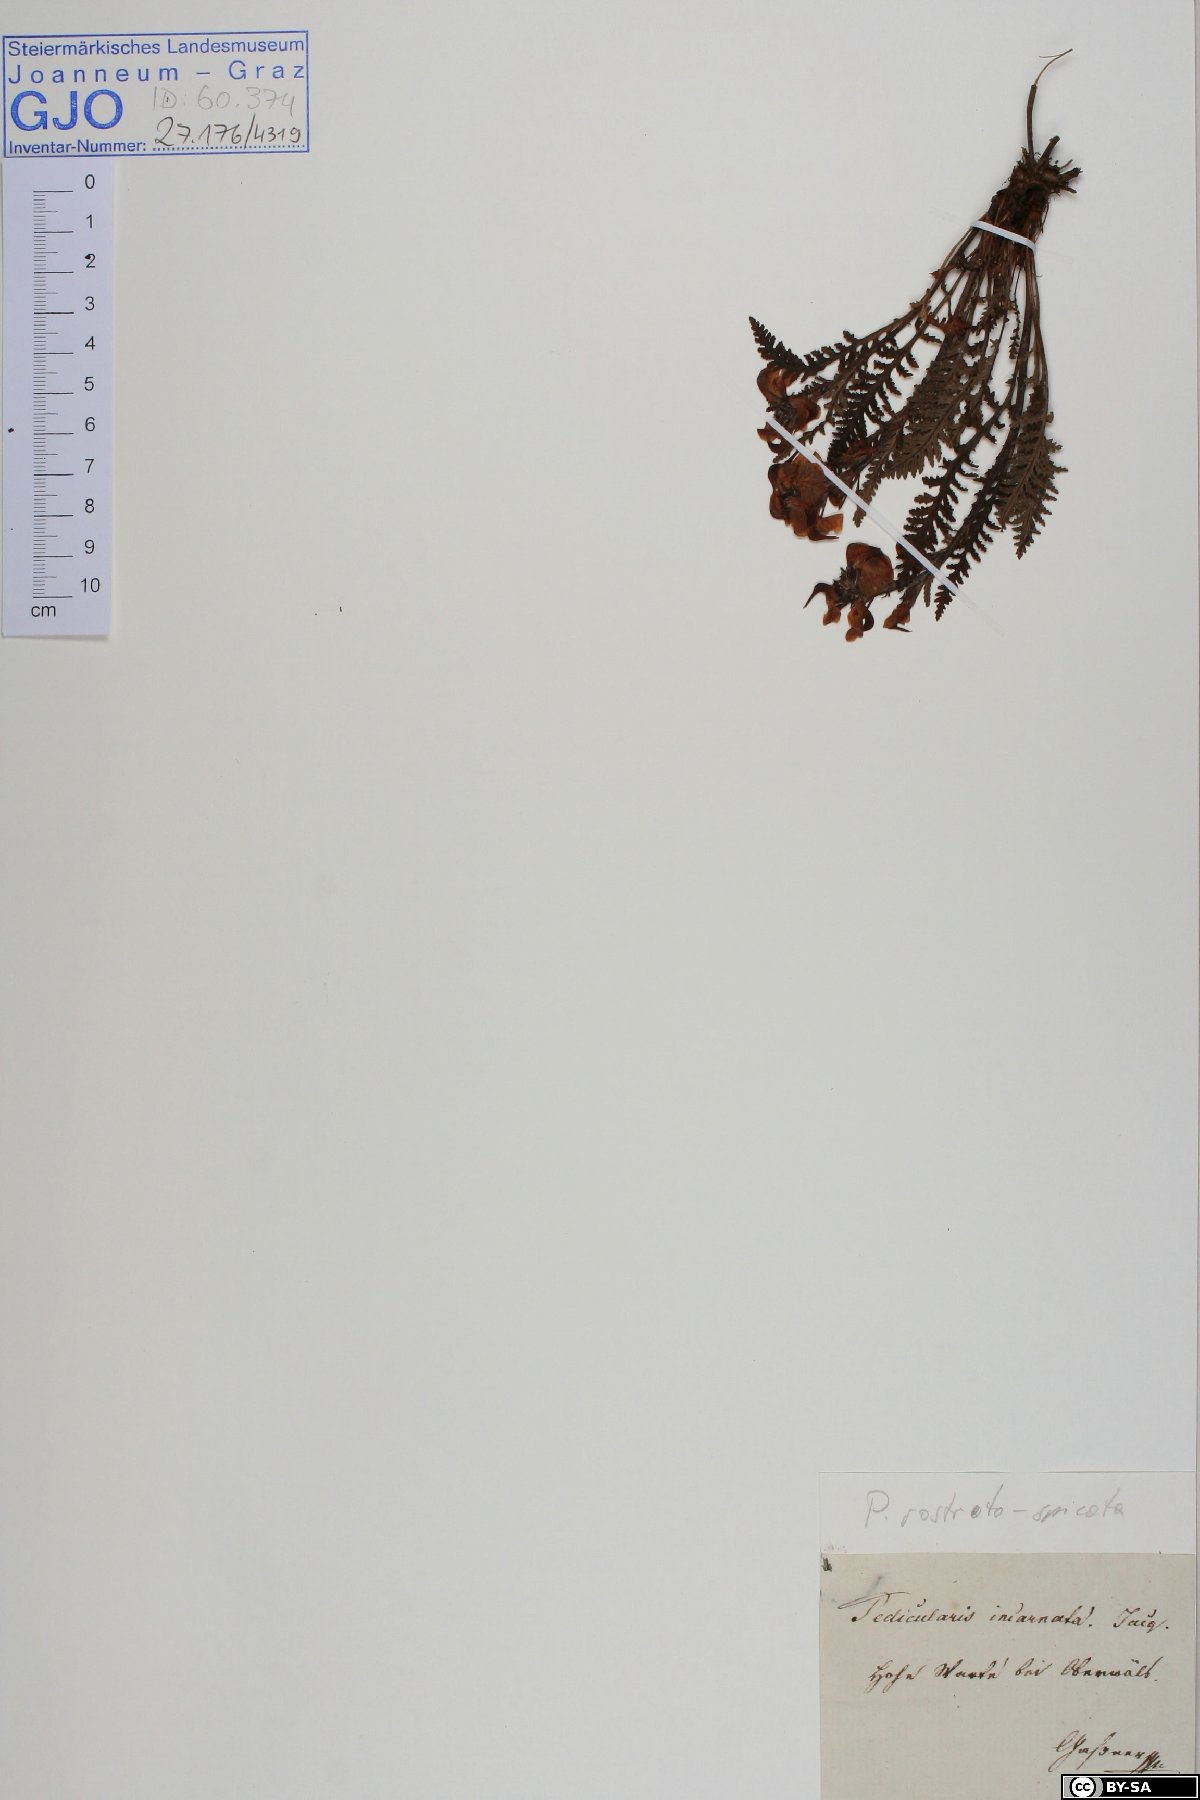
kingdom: Plantae
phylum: Tracheophyta
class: Magnoliopsida
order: Lamiales
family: Orobanchaceae
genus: Pedicularis
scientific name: Pedicularis rostratospicata
